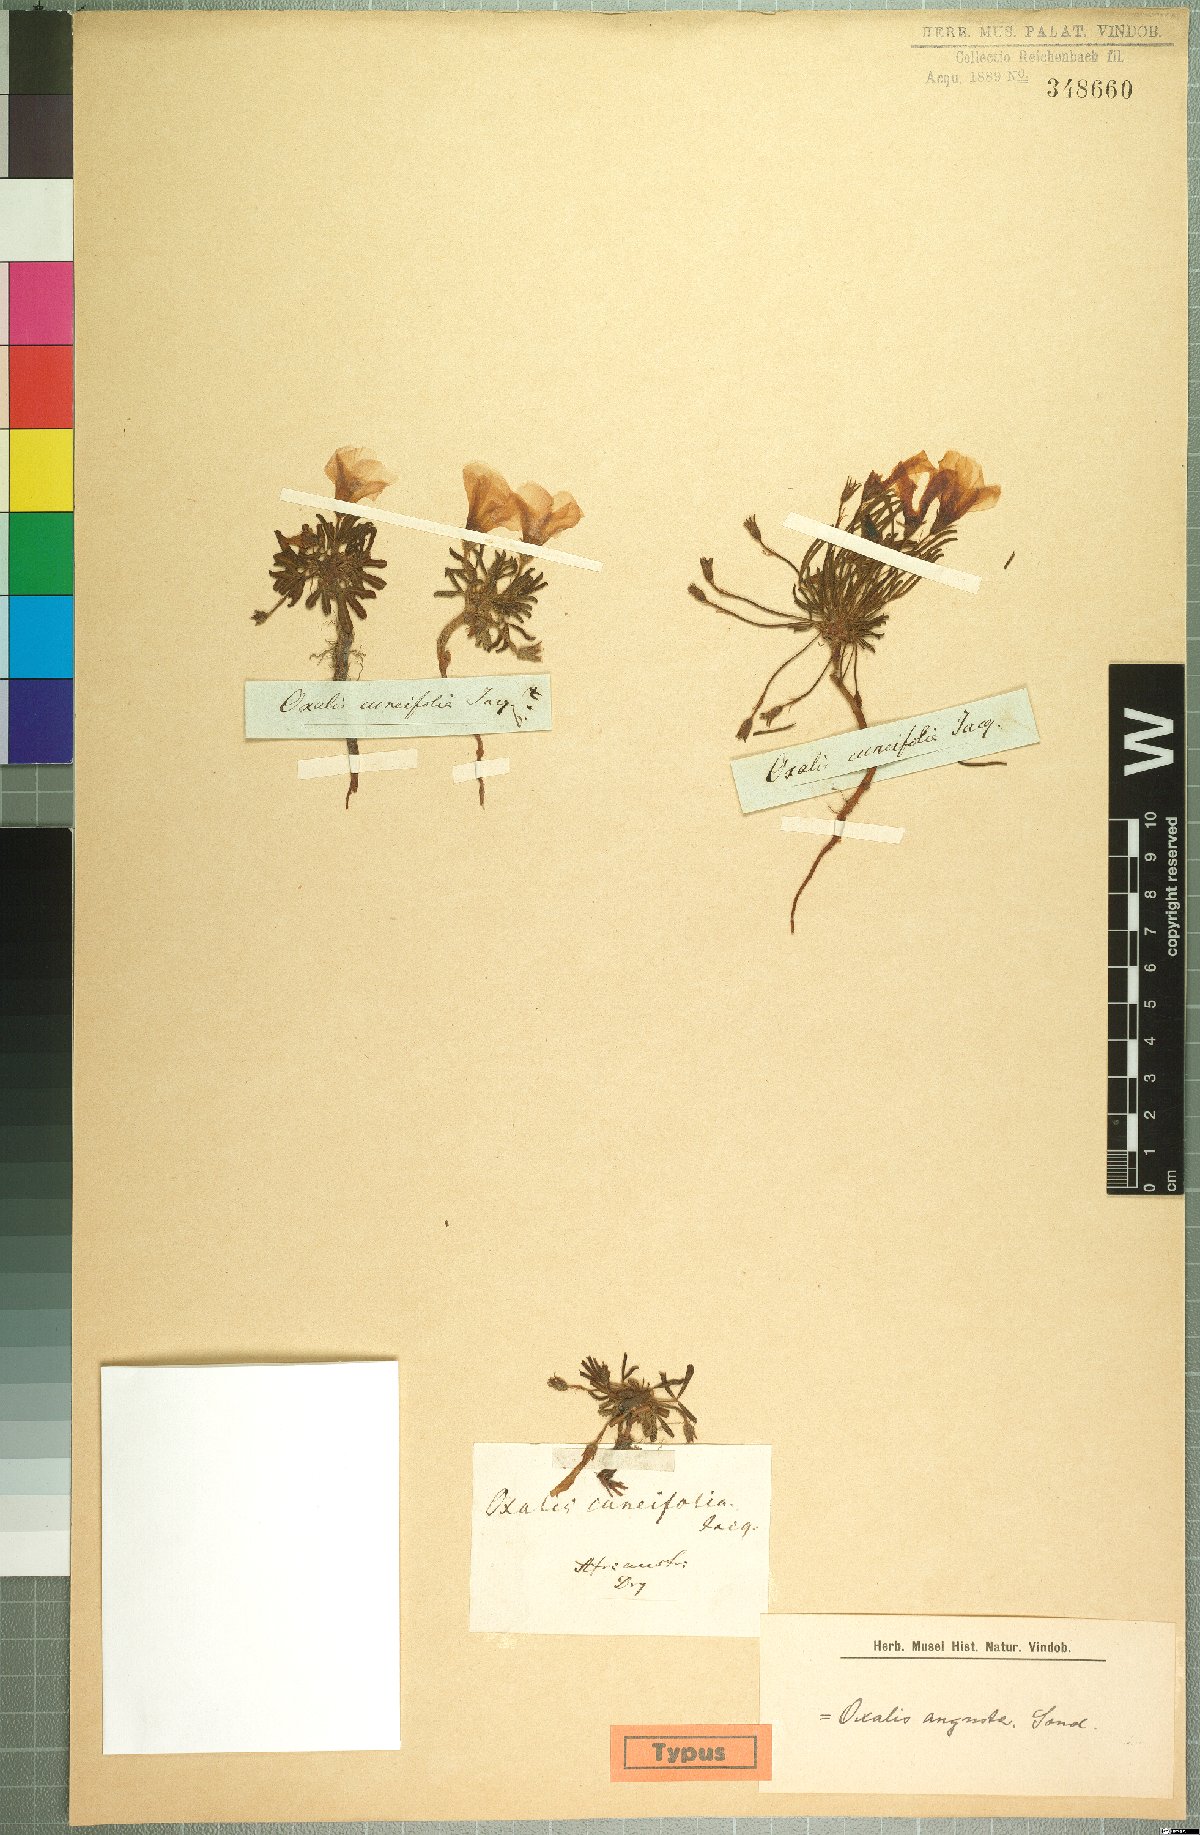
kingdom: Plantae
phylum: Tracheophyta
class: Magnoliopsida
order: Oxalidales
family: Oxalidaceae
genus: Oxalis
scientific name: Oxalis adspersa
